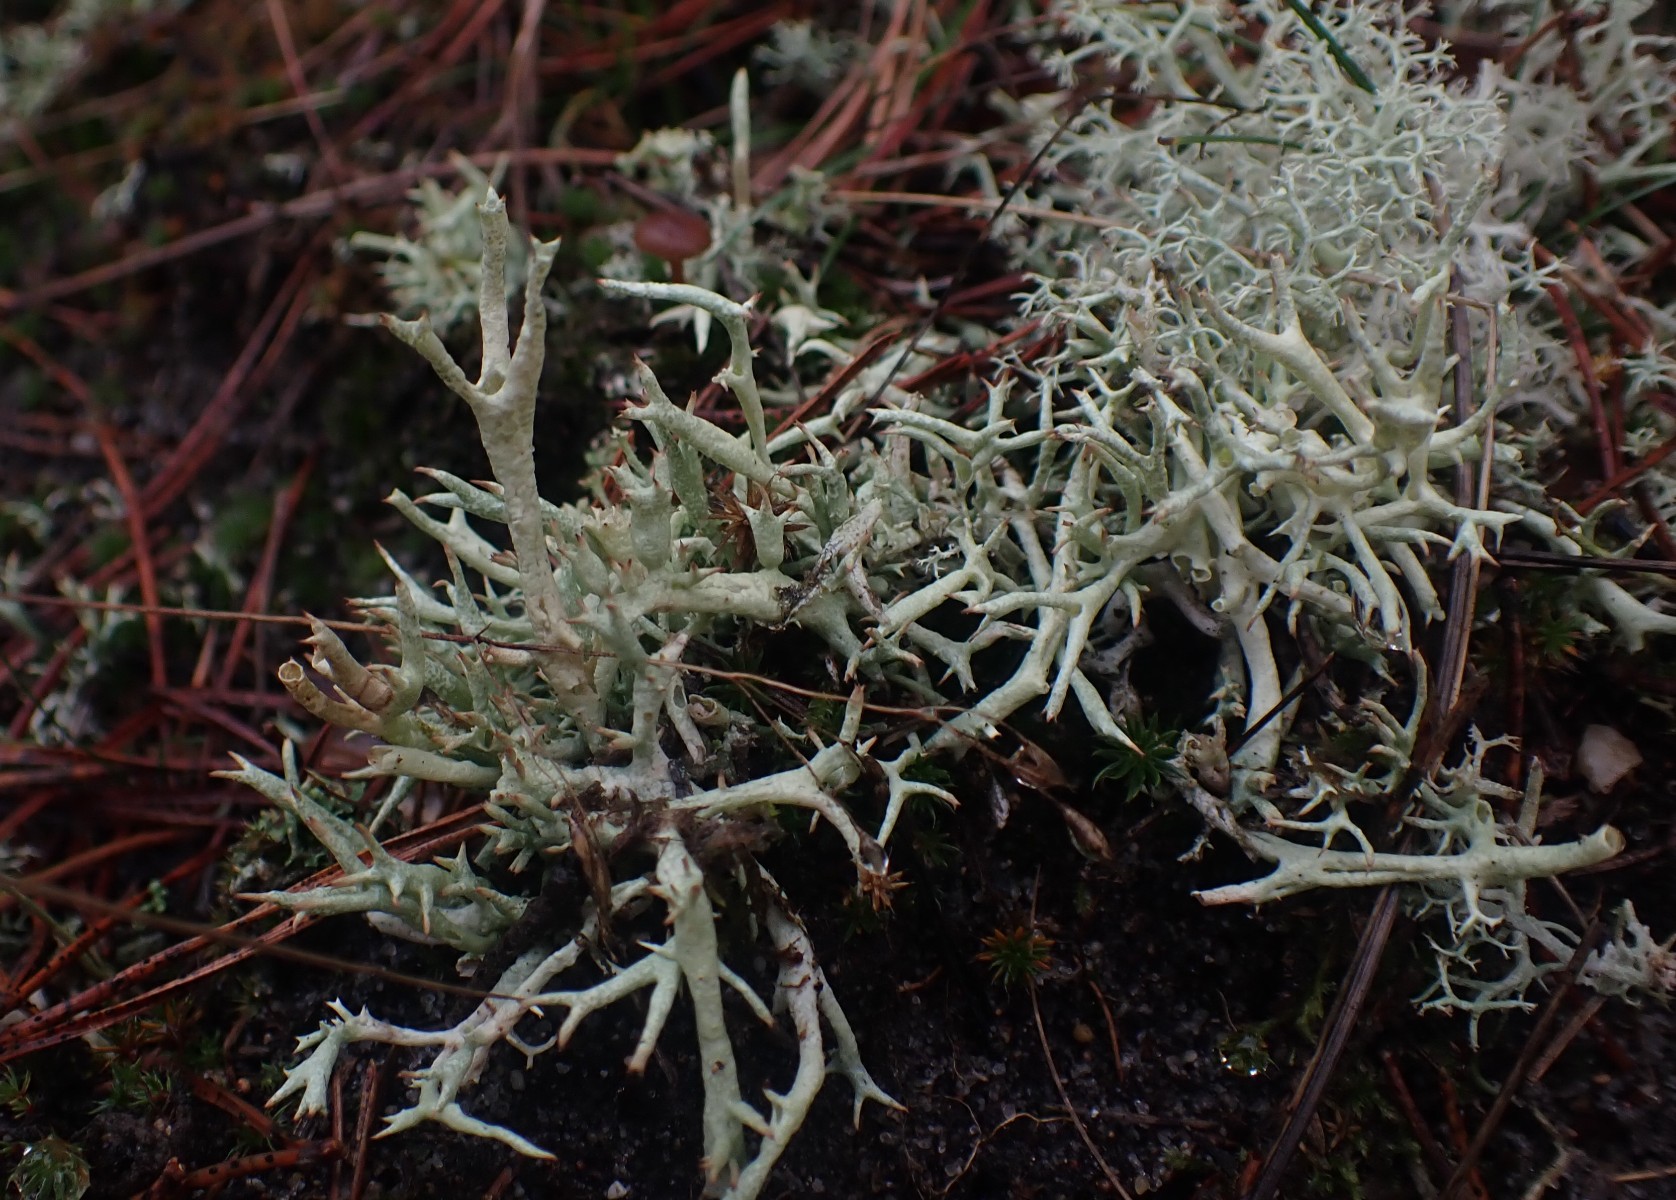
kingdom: Fungi
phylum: Ascomycota
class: Lecanoromycetes
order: Lecanorales
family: Cladoniaceae
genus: Cladonia
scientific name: Cladonia uncialis
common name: pigget bægerlav
